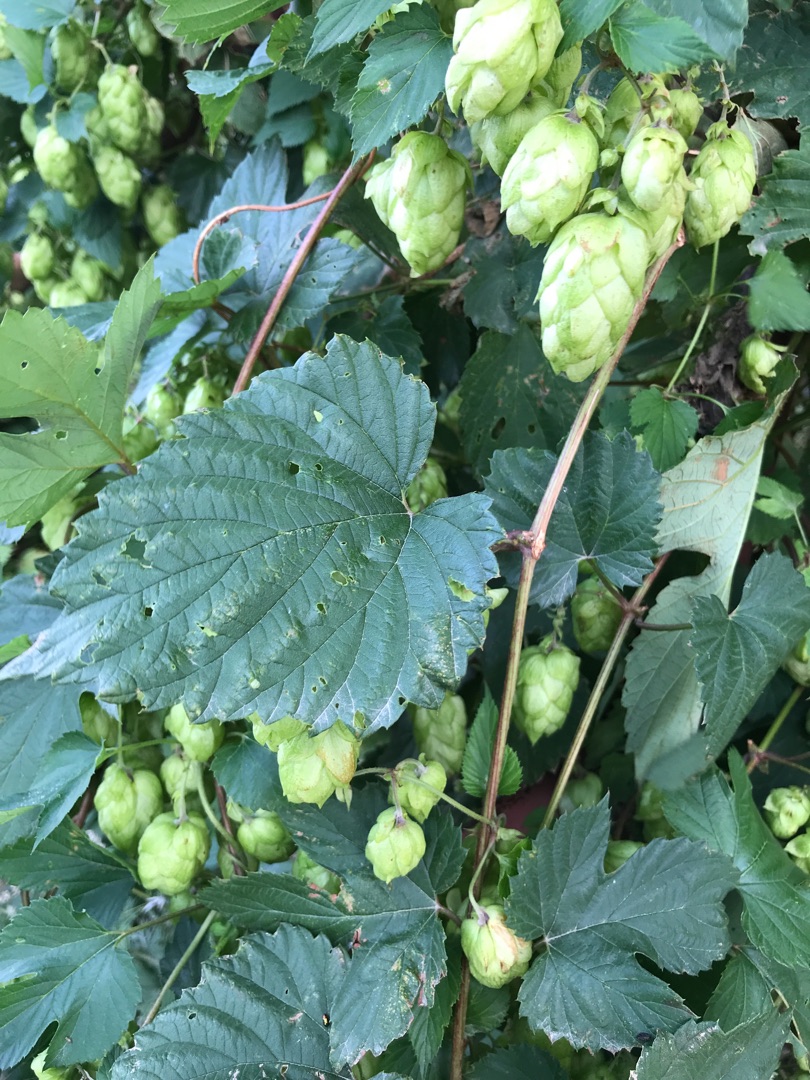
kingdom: Plantae
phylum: Tracheophyta
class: Magnoliopsida
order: Rosales
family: Cannabaceae
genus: Humulus
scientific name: Humulus lupulus
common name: Humle
